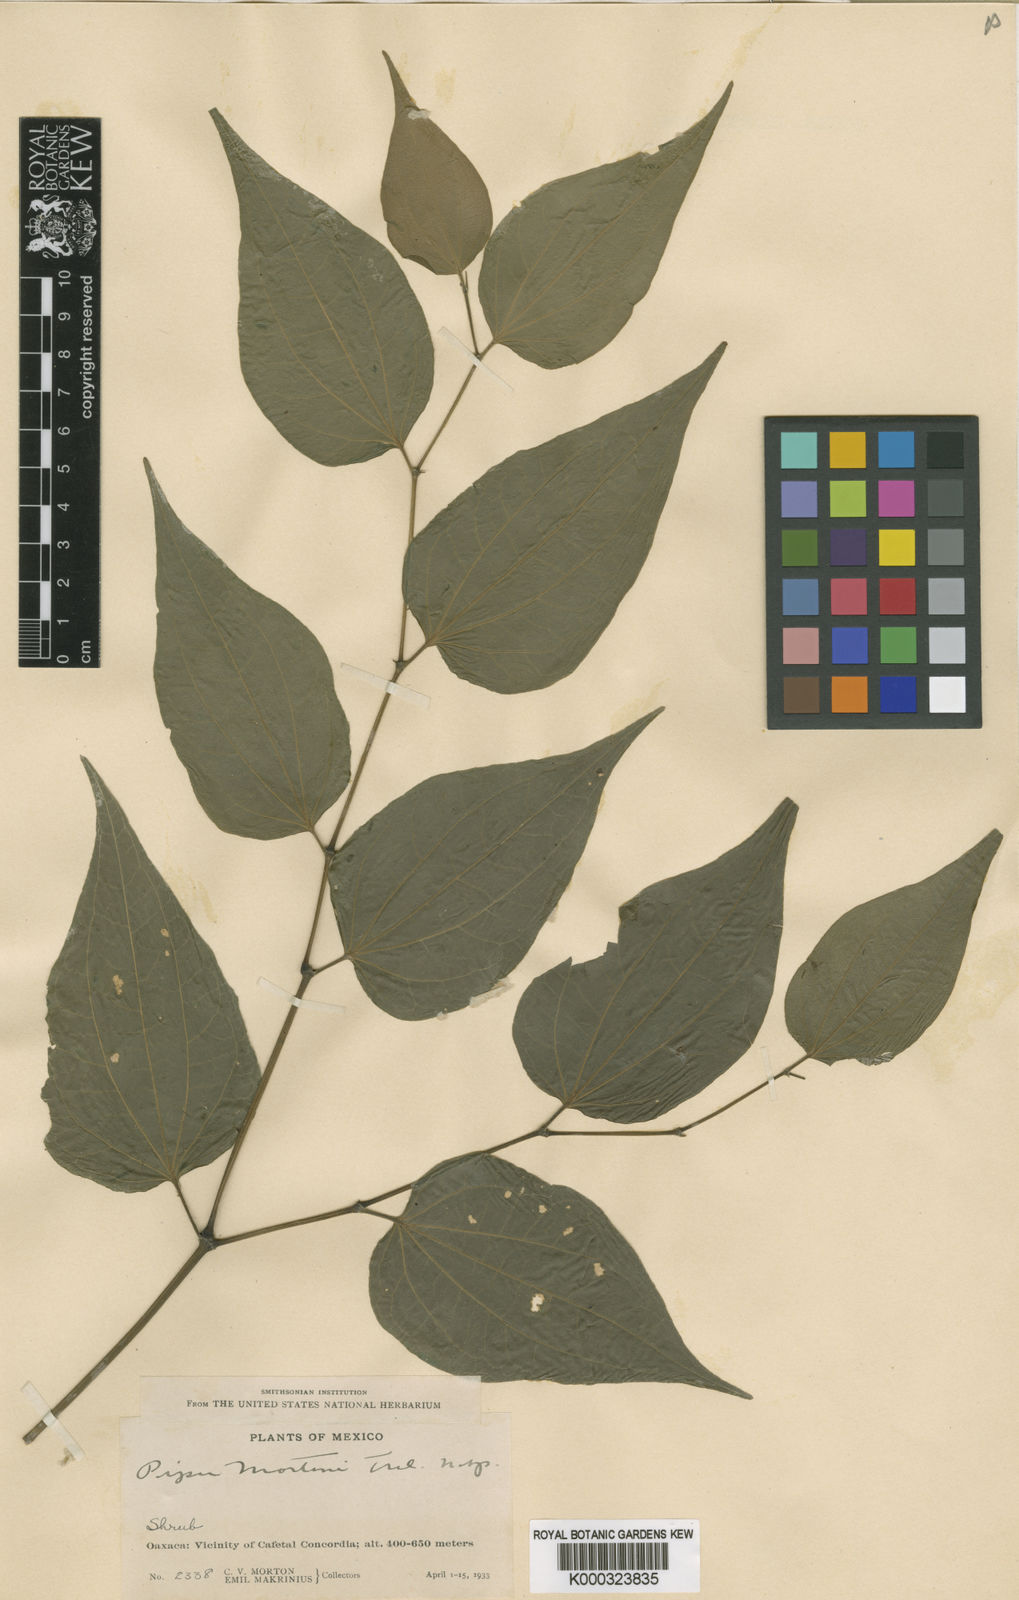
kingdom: Plantae
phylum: Tracheophyta
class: Magnoliopsida
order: Piperales
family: Piperaceae
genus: Piper
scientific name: Piper amalago
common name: Pepper-elder
